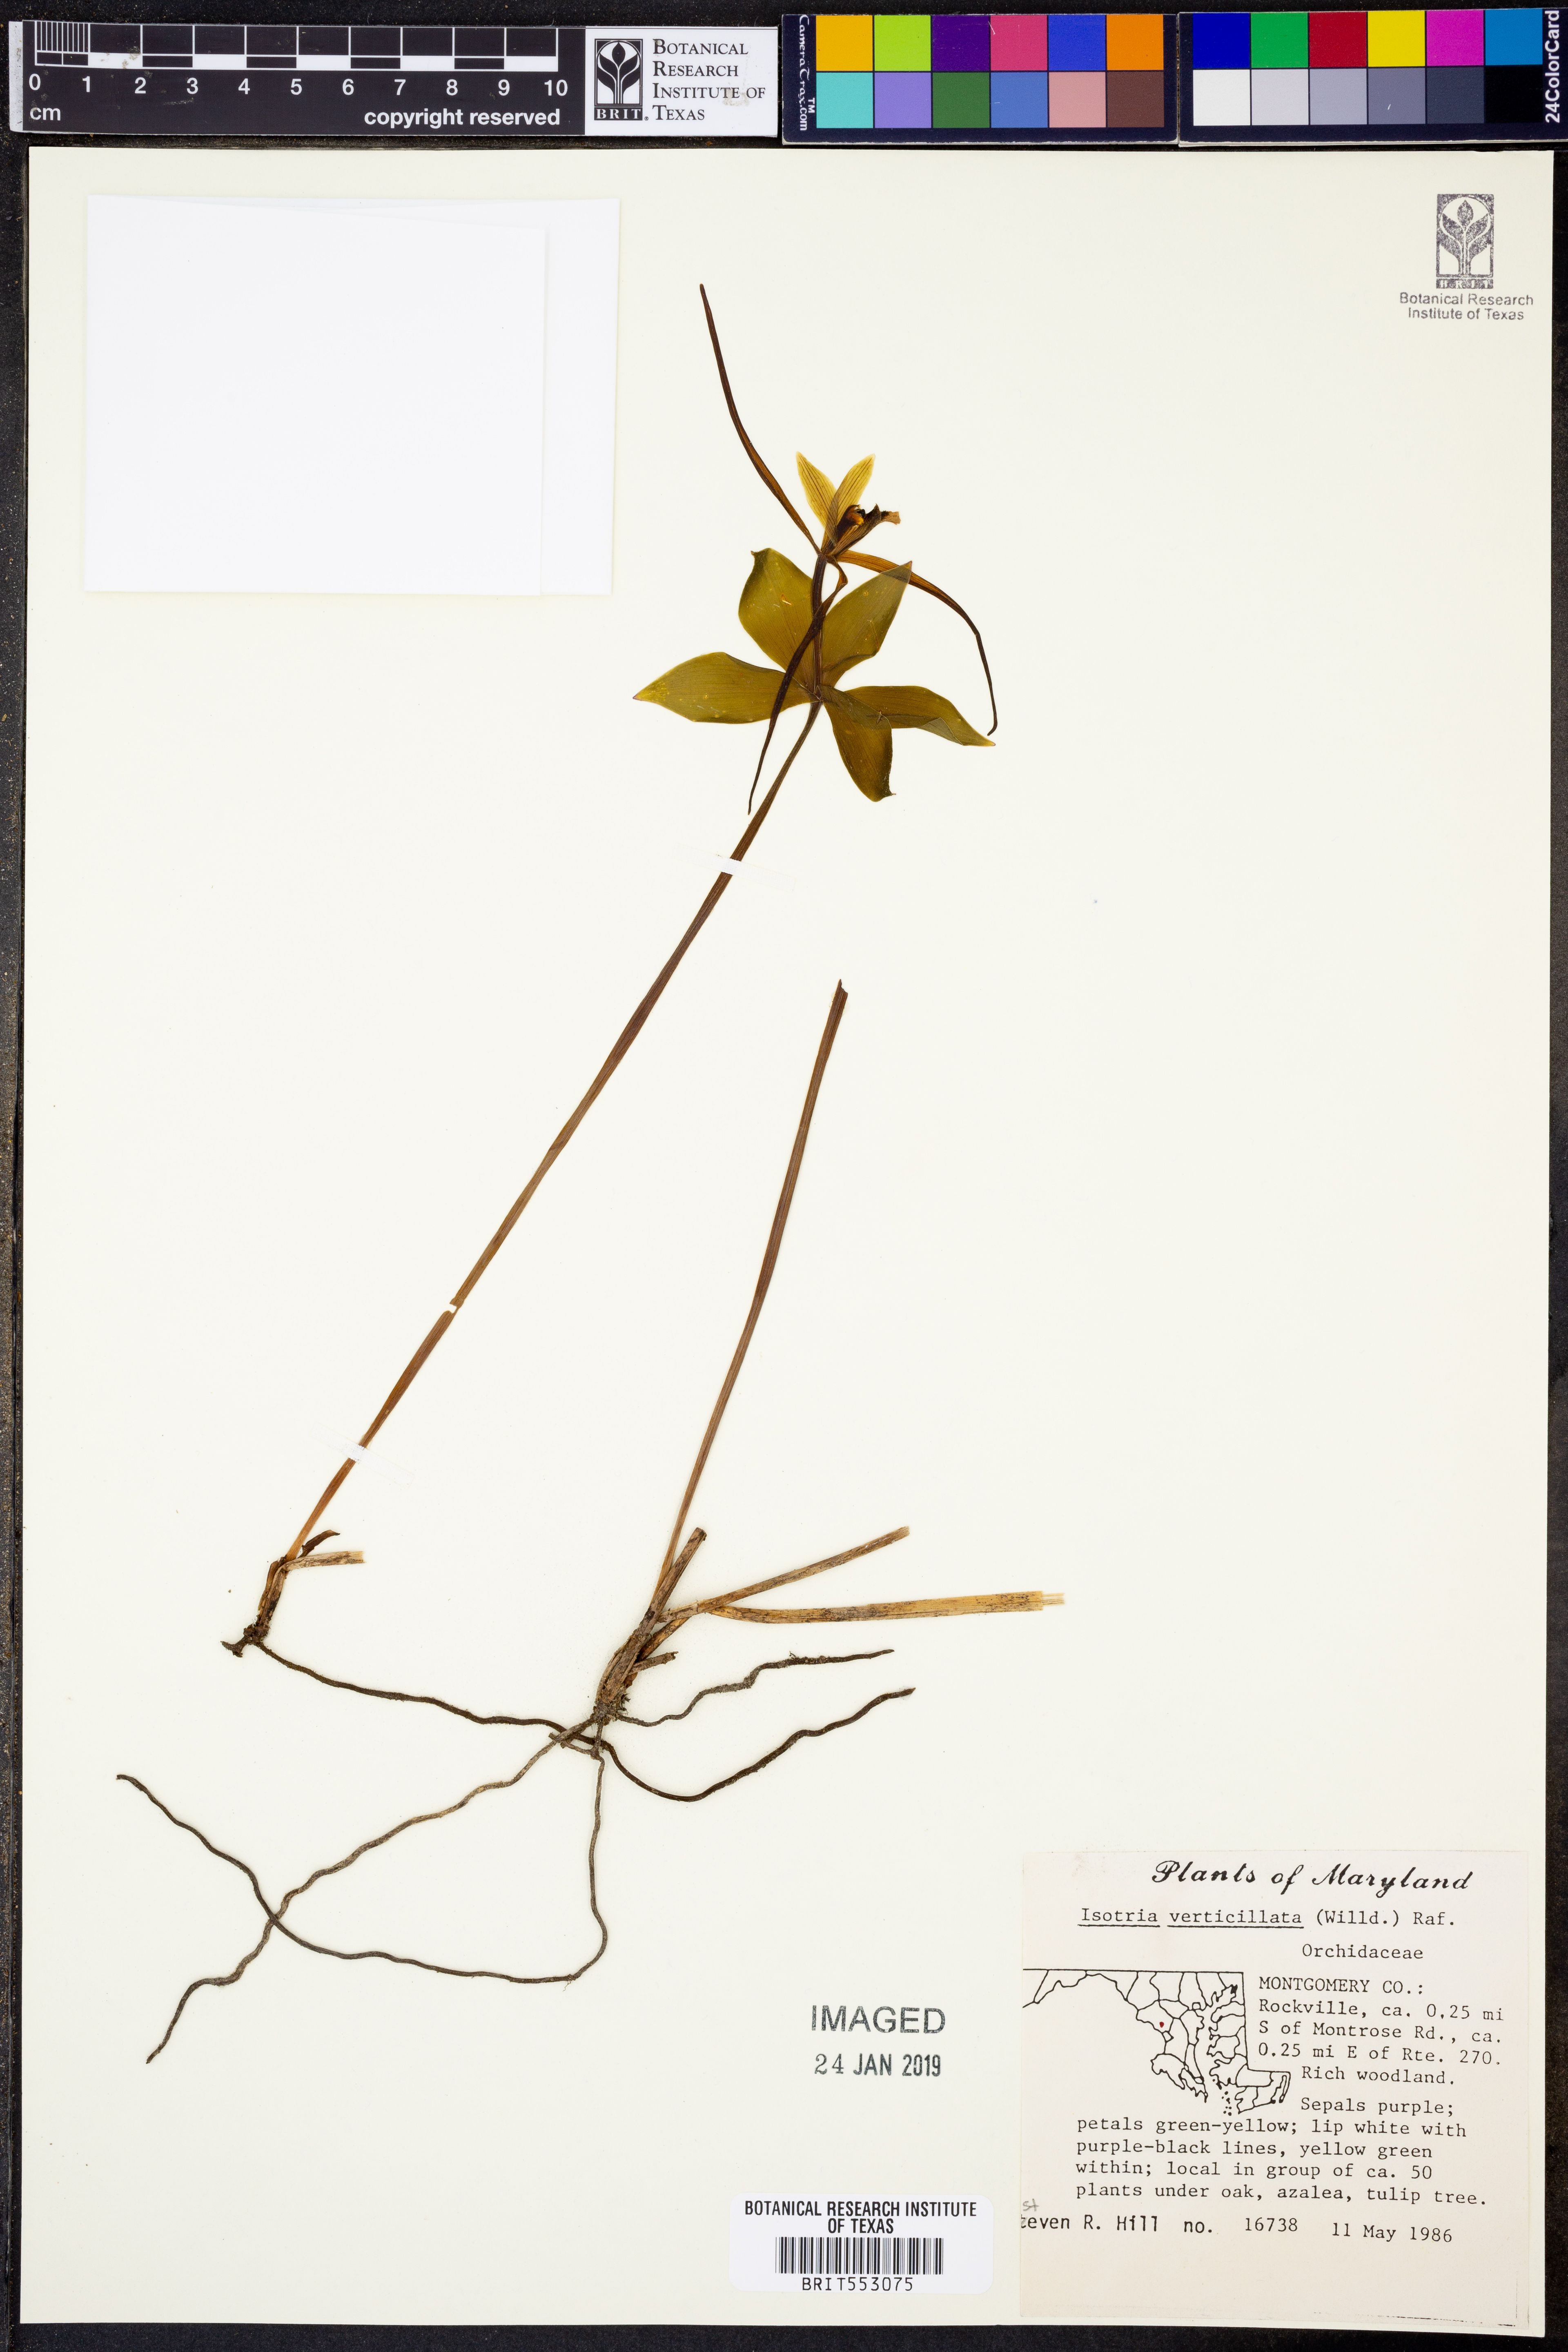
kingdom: Plantae
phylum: Tracheophyta
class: Liliopsida
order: Asparagales
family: Orchidaceae
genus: Isotria
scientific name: Isotria verticillata
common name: Large whorled pogonia
